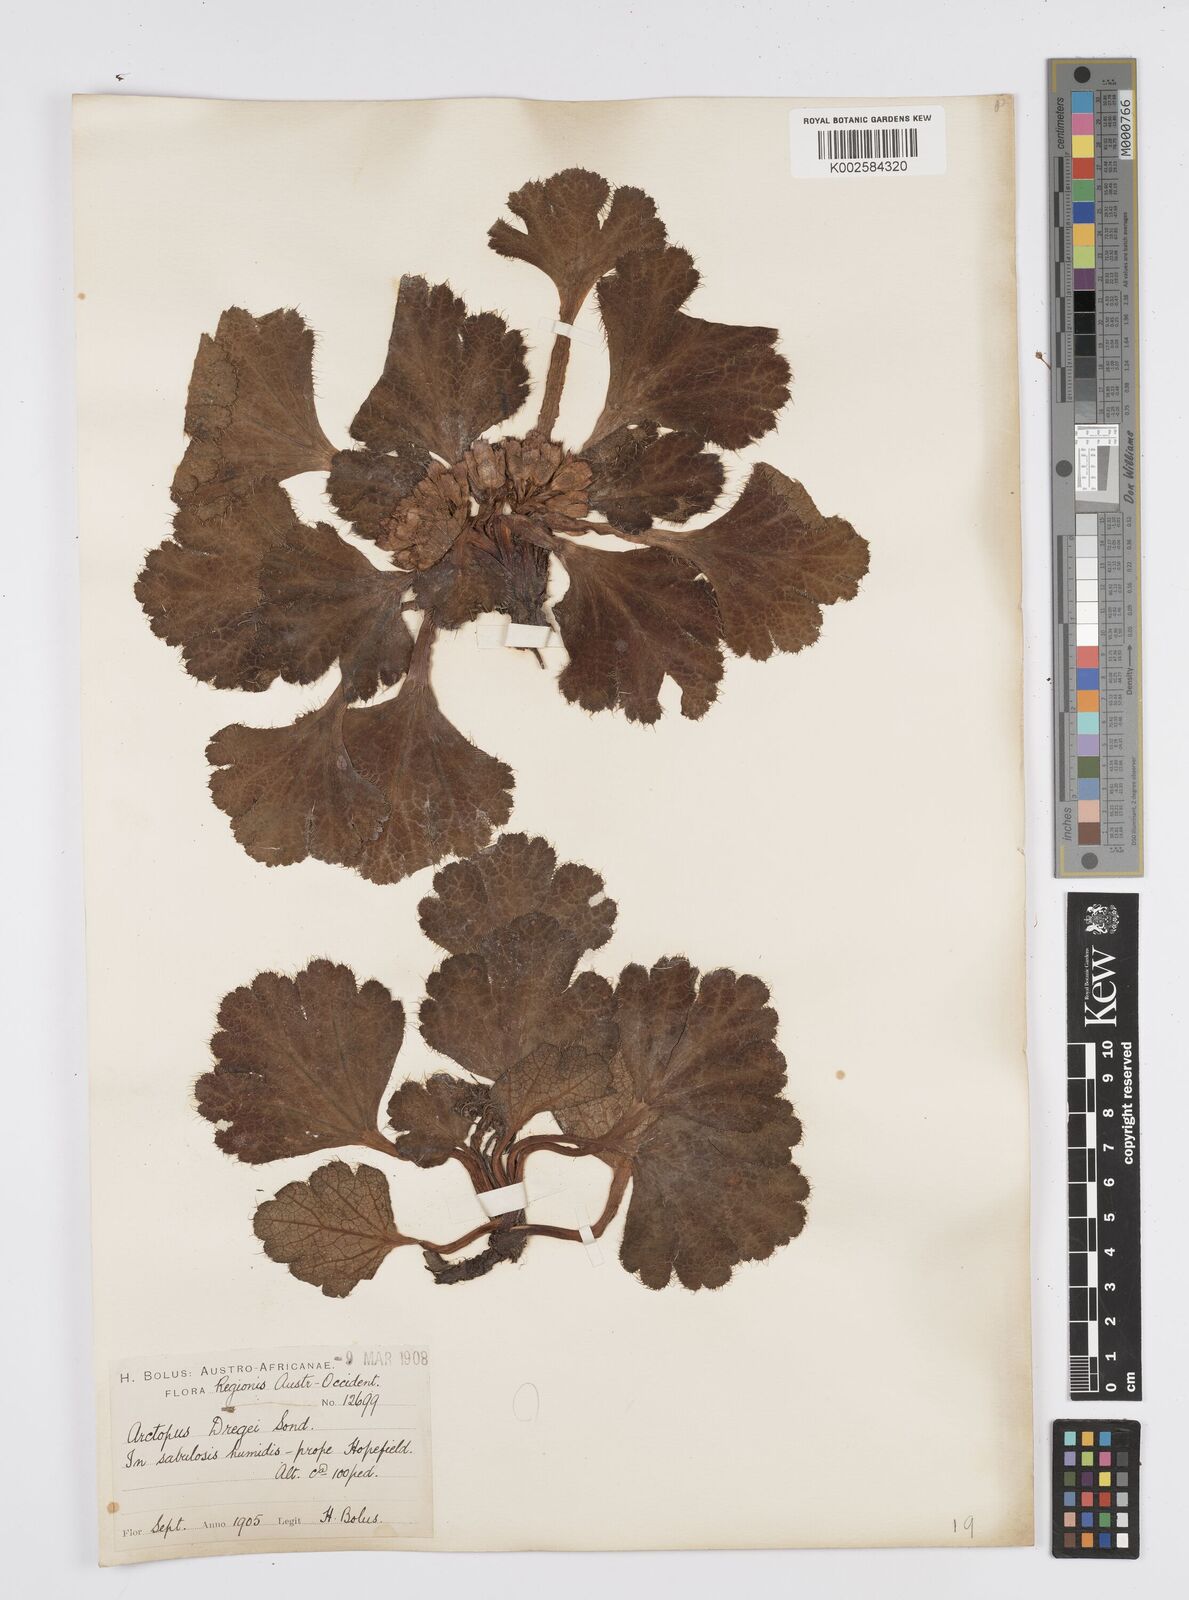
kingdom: Plantae
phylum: Tracheophyta
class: Magnoliopsida
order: Apiales
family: Apiaceae
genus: Arctopus
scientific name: Arctopus dregei
